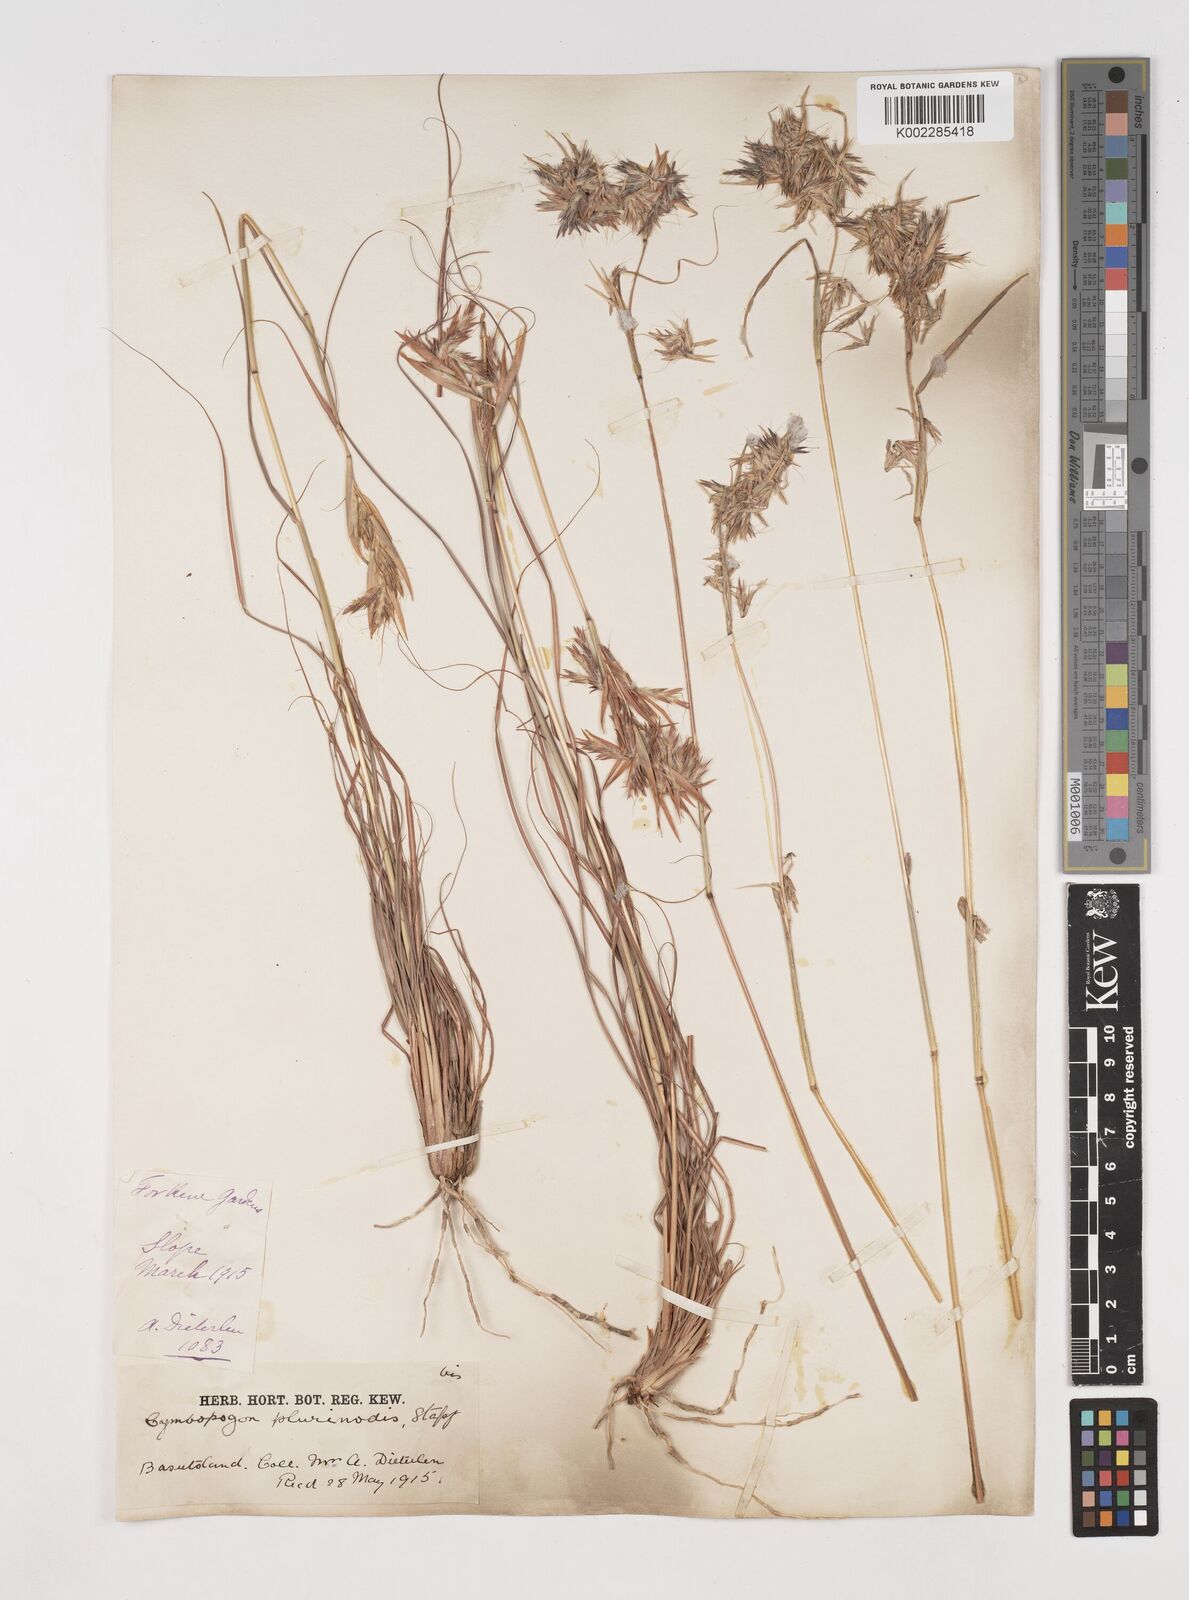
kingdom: Plantae
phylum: Tracheophyta
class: Liliopsida
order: Poales
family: Poaceae
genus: Cymbopogon
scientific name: Cymbopogon
